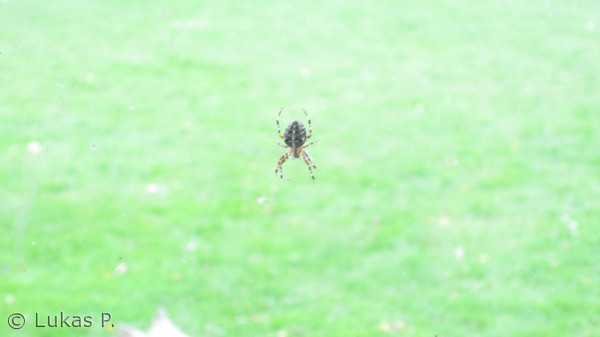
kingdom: Animalia
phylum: Arthropoda
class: Arachnida
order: Araneae
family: Araneidae
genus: Araneus
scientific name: Araneus diadematus
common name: Korsedderkop
